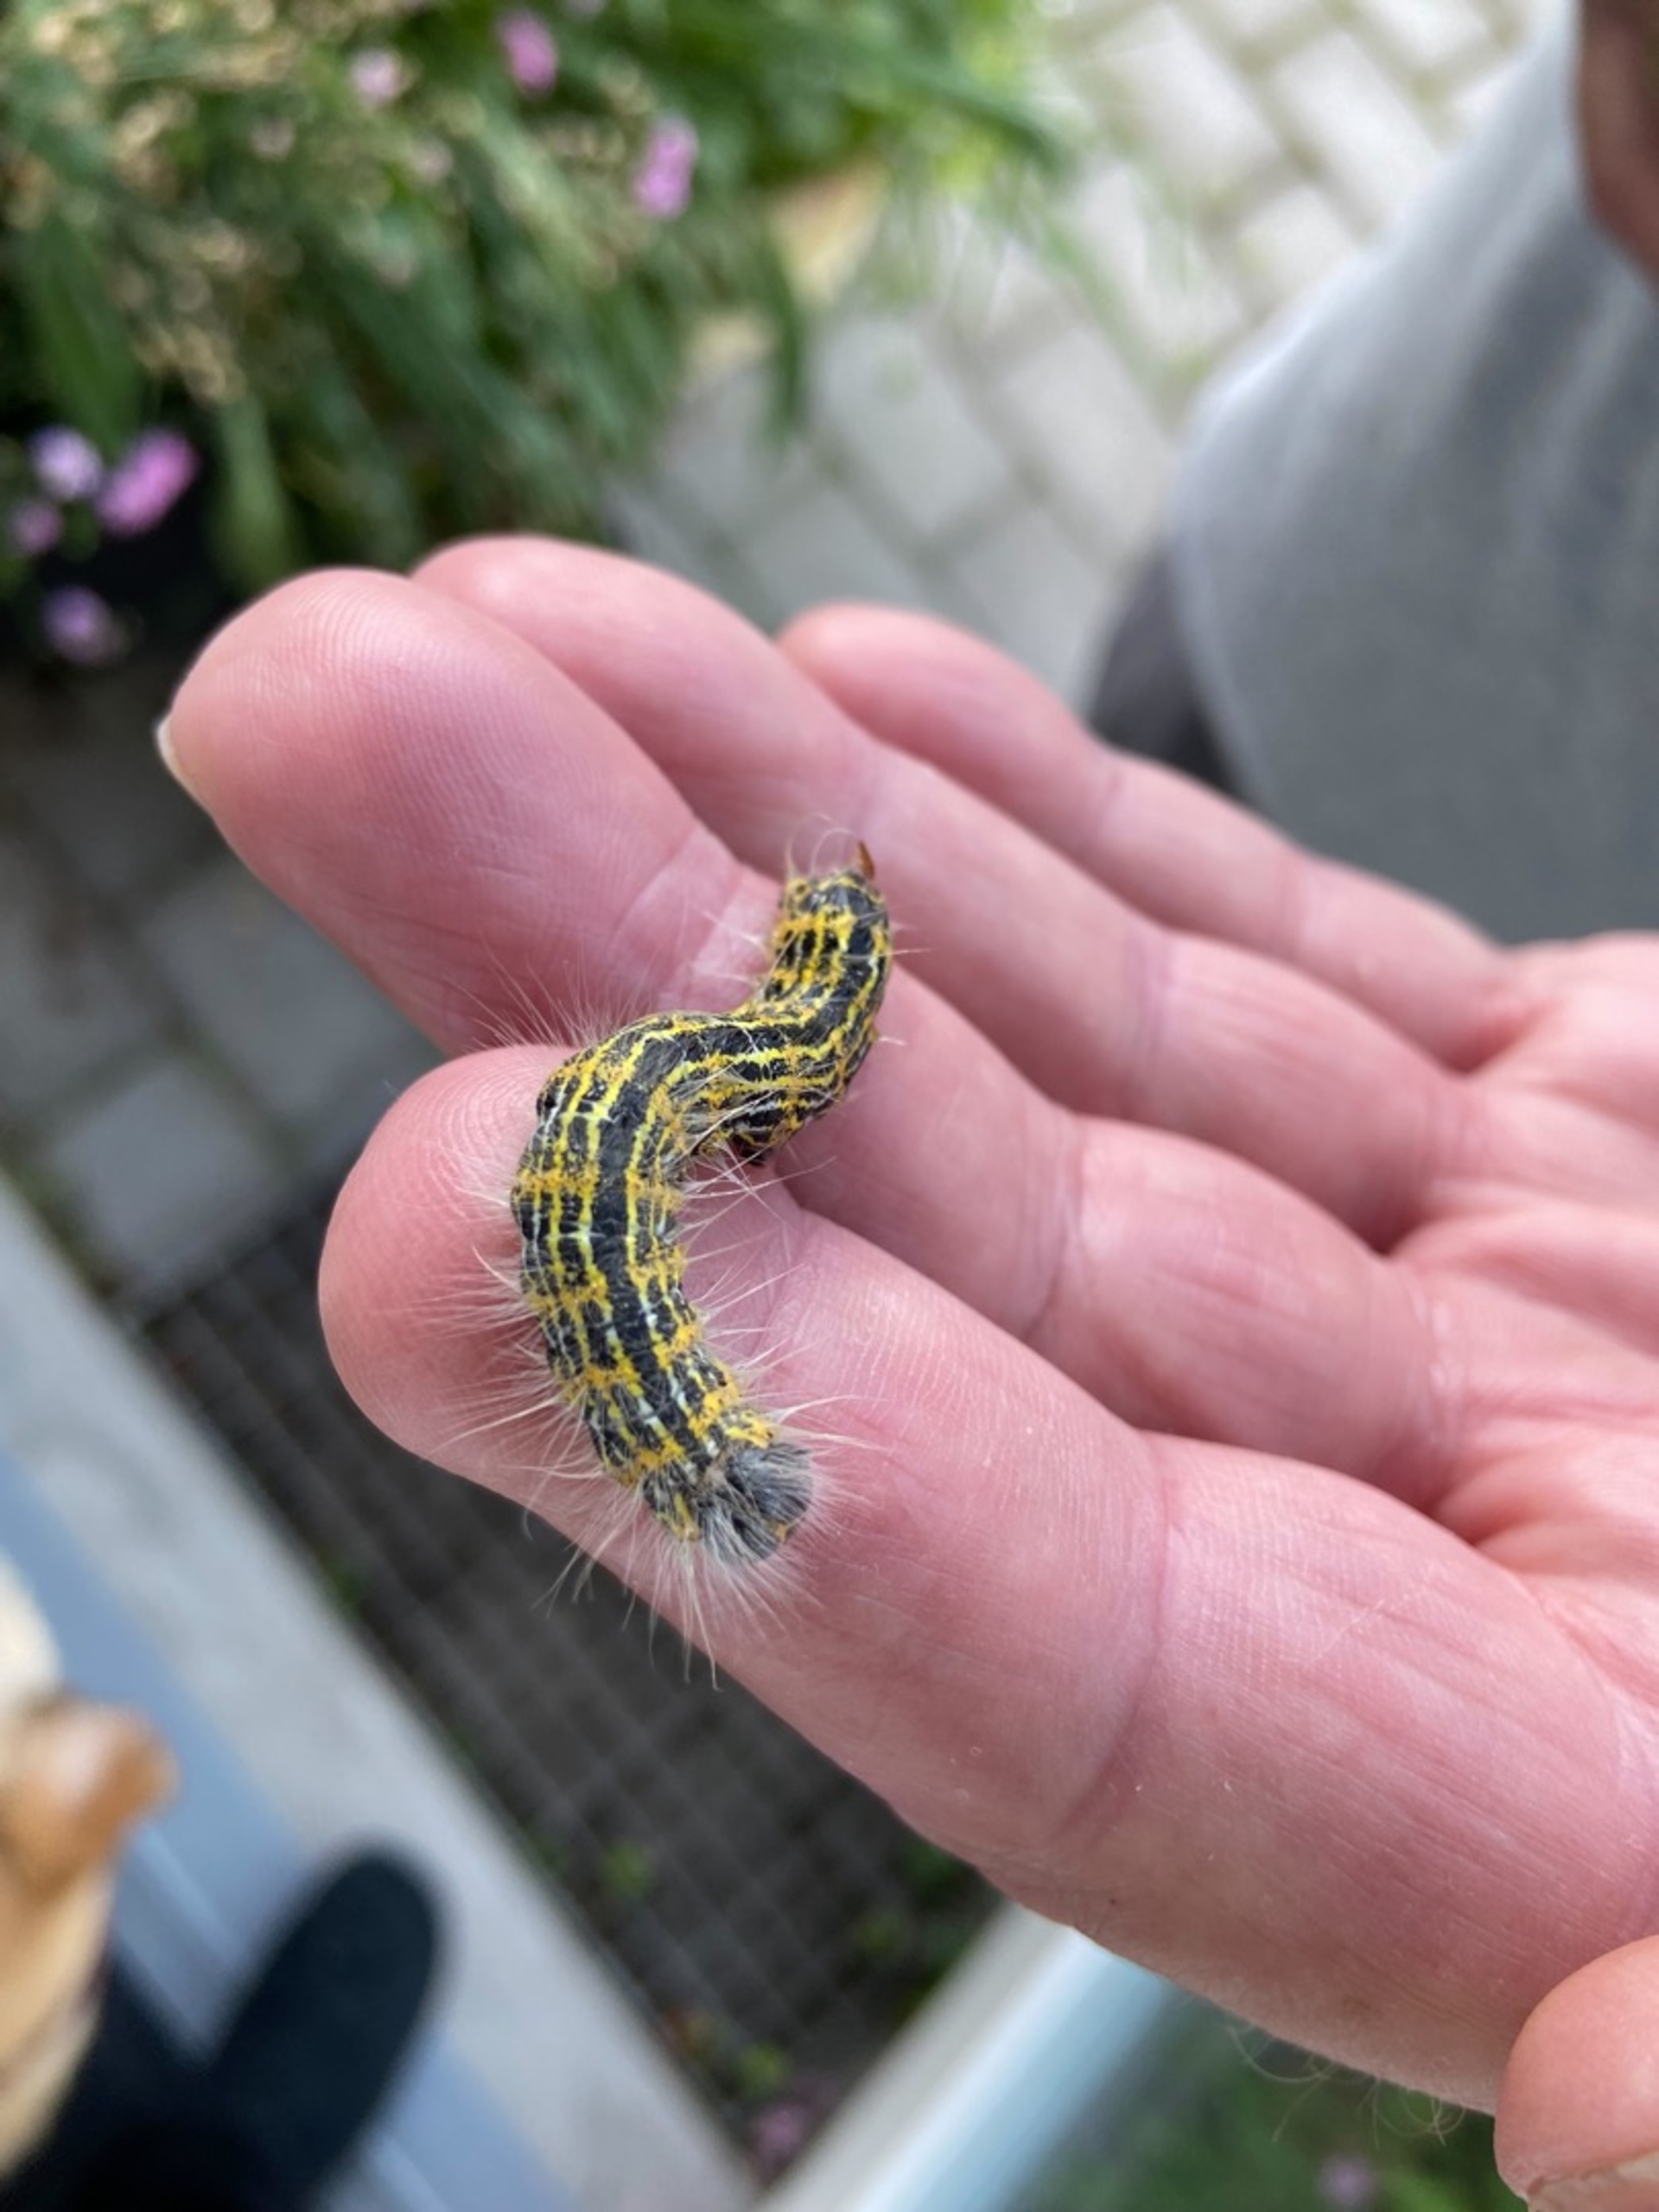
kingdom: Animalia
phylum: Arthropoda
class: Insecta
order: Lepidoptera
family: Notodontidae
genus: Phalera
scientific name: Phalera bucephala
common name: Måneplet
